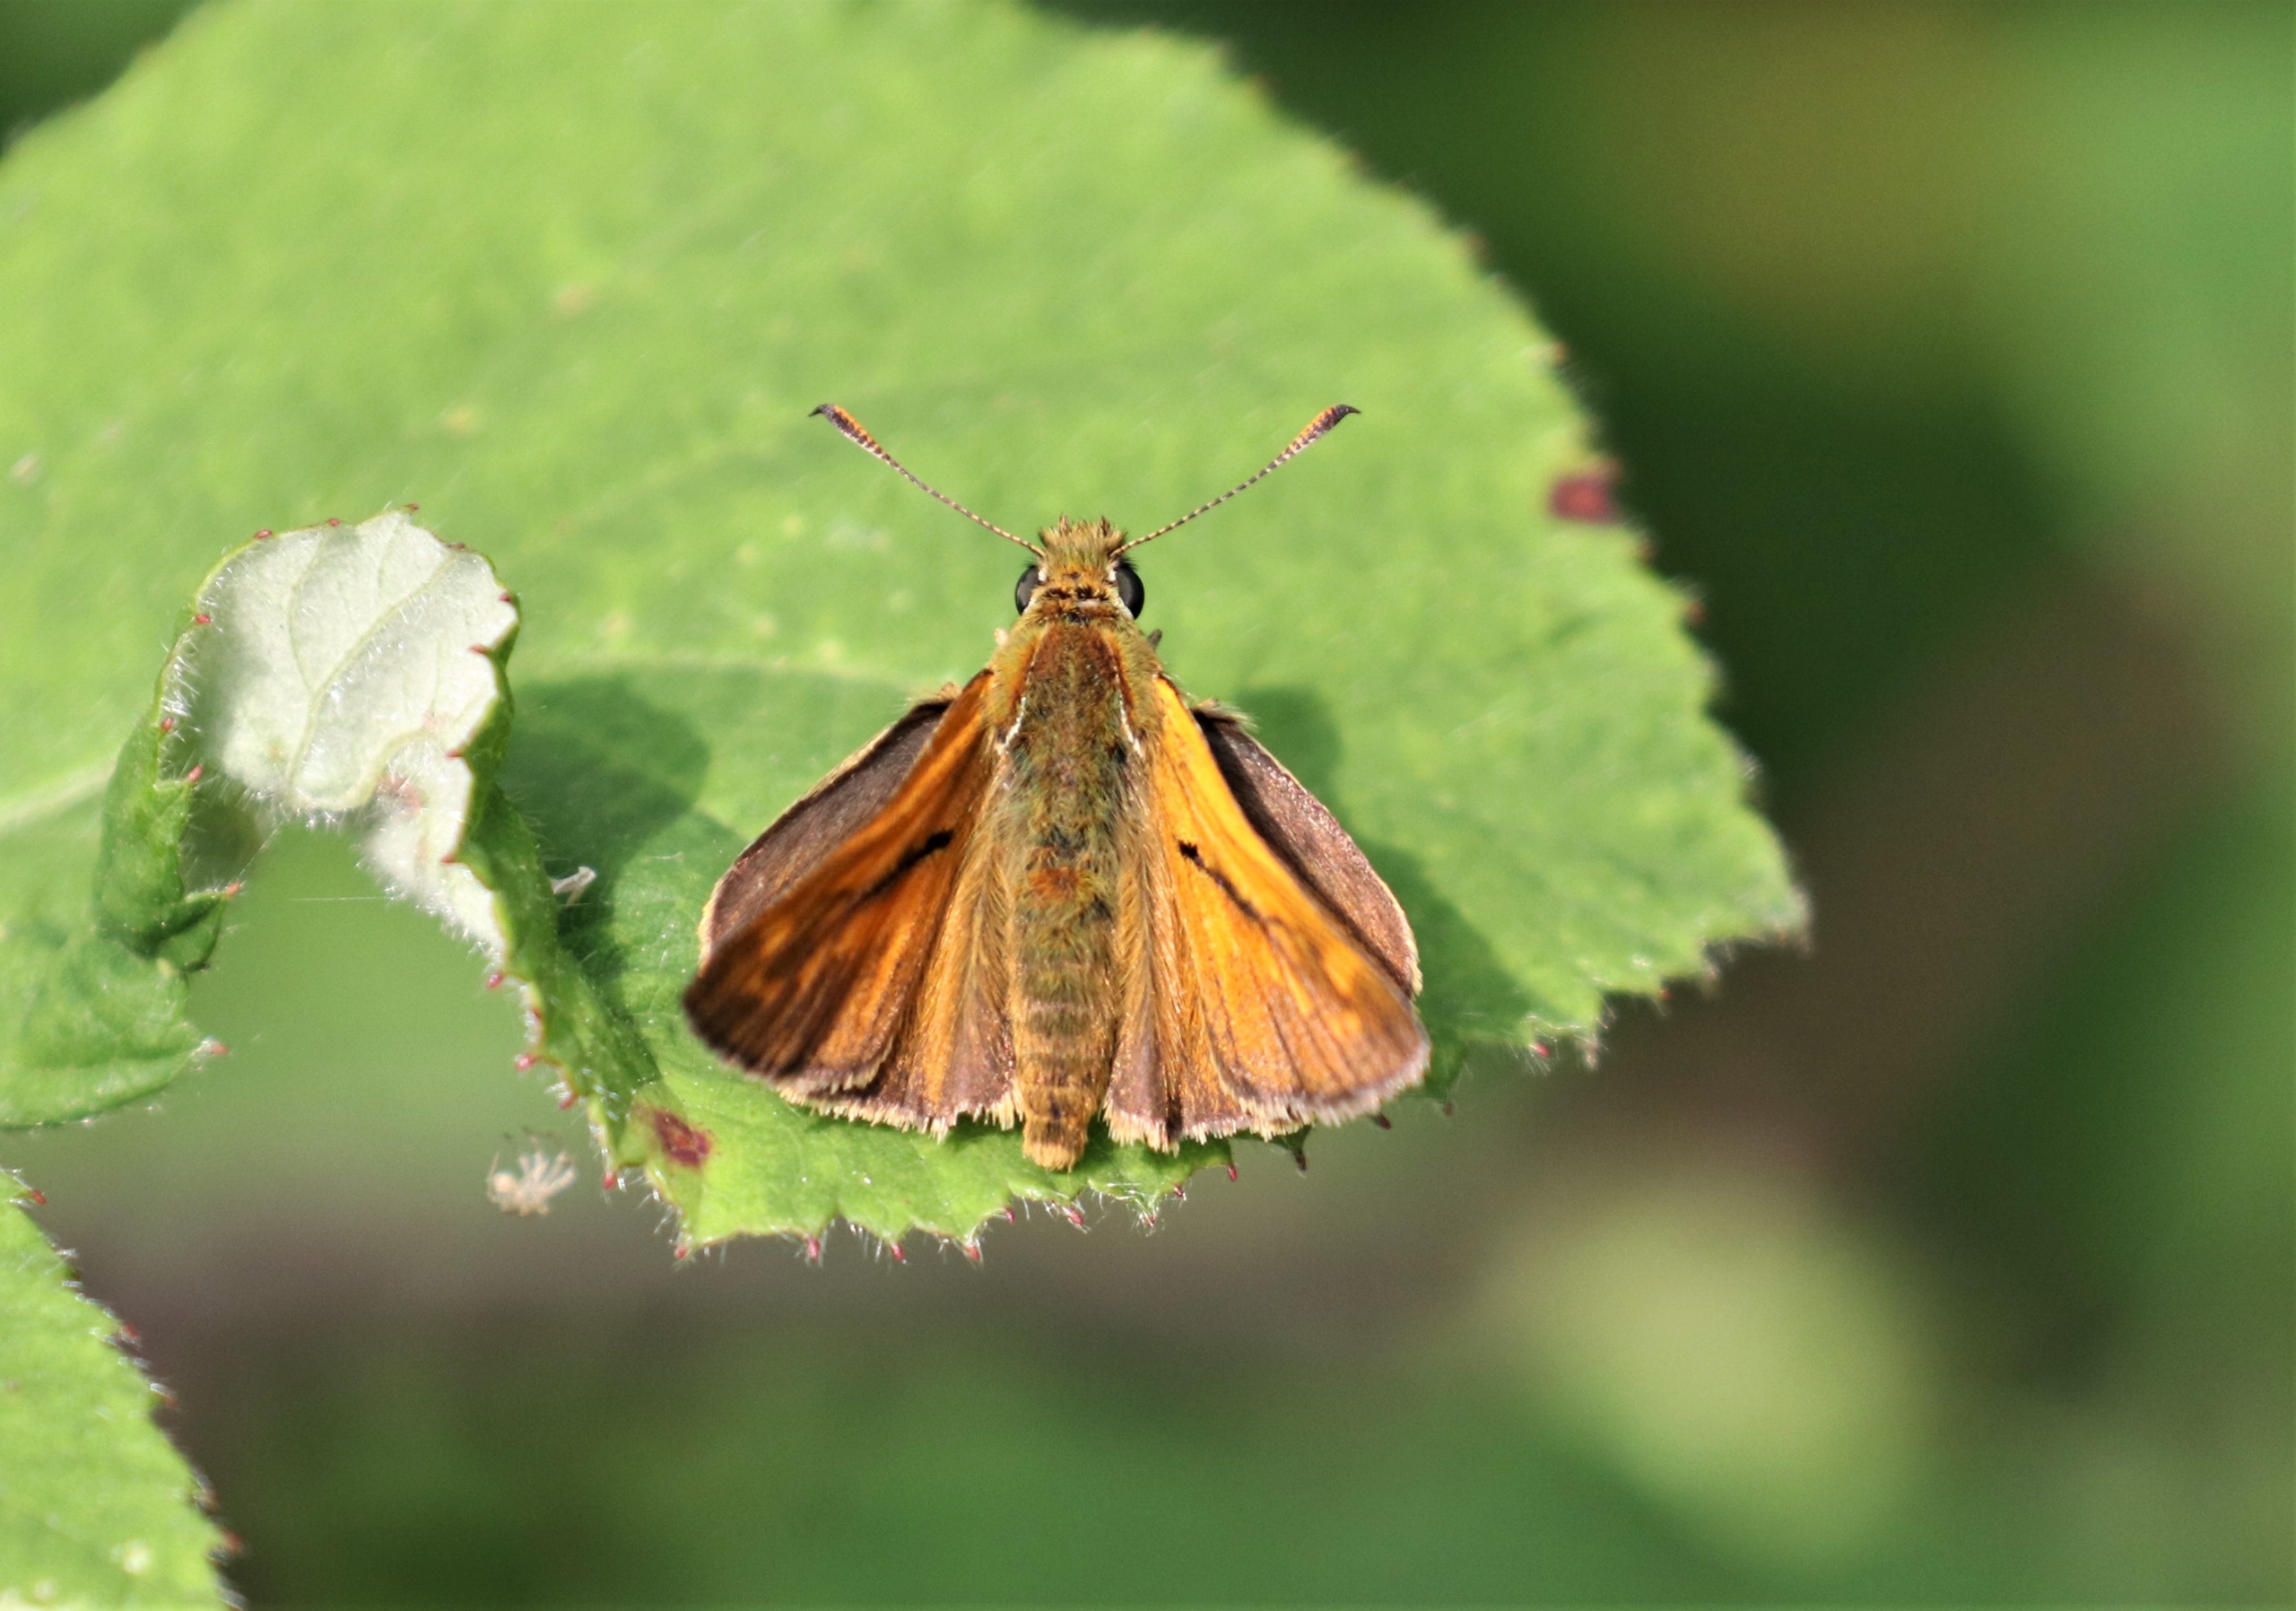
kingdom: Animalia
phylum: Arthropoda
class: Insecta
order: Lepidoptera
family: Hesperiidae
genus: Ochlodes
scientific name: Ochlodes venata
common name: Stor bredpande
